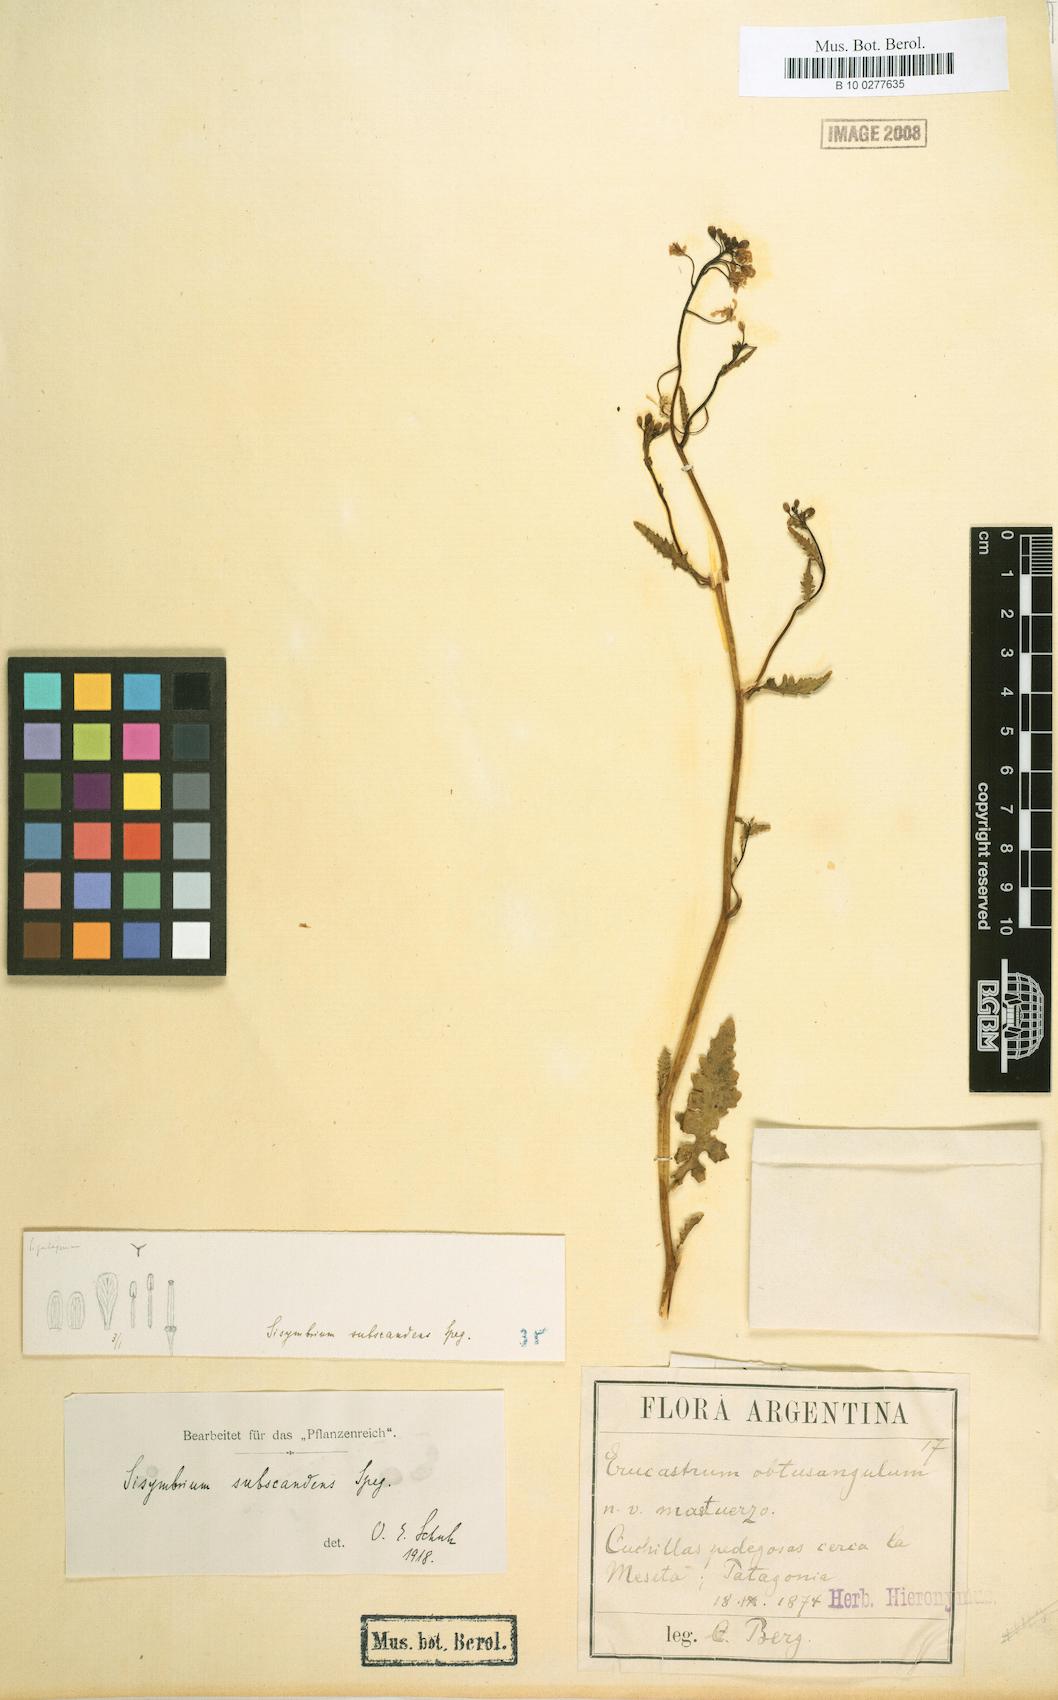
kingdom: Plantae
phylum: Tracheophyta
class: Magnoliopsida
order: Brassicales
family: Brassicaceae
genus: Mostacillastrum
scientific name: Mostacillastrum subscandens
